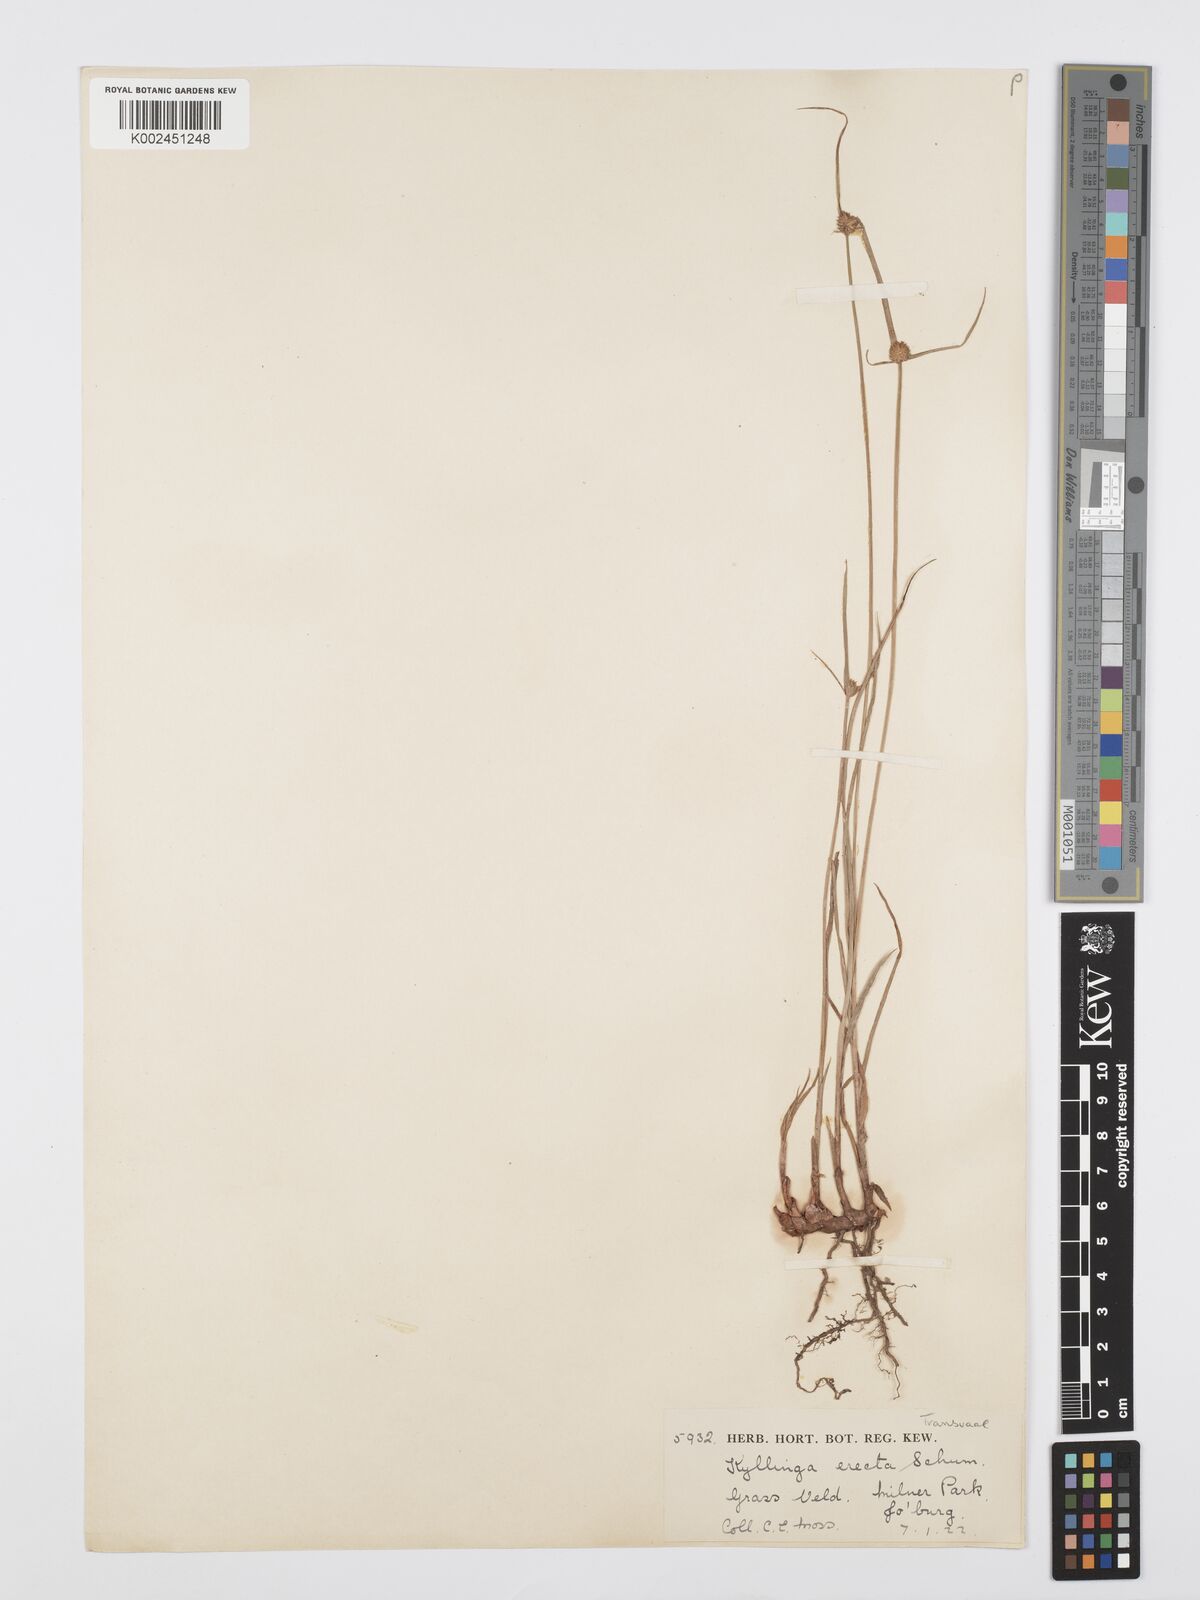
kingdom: Plantae
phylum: Tracheophyta
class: Liliopsida
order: Poales
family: Cyperaceae
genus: Cyperus
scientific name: Cyperus erectus
